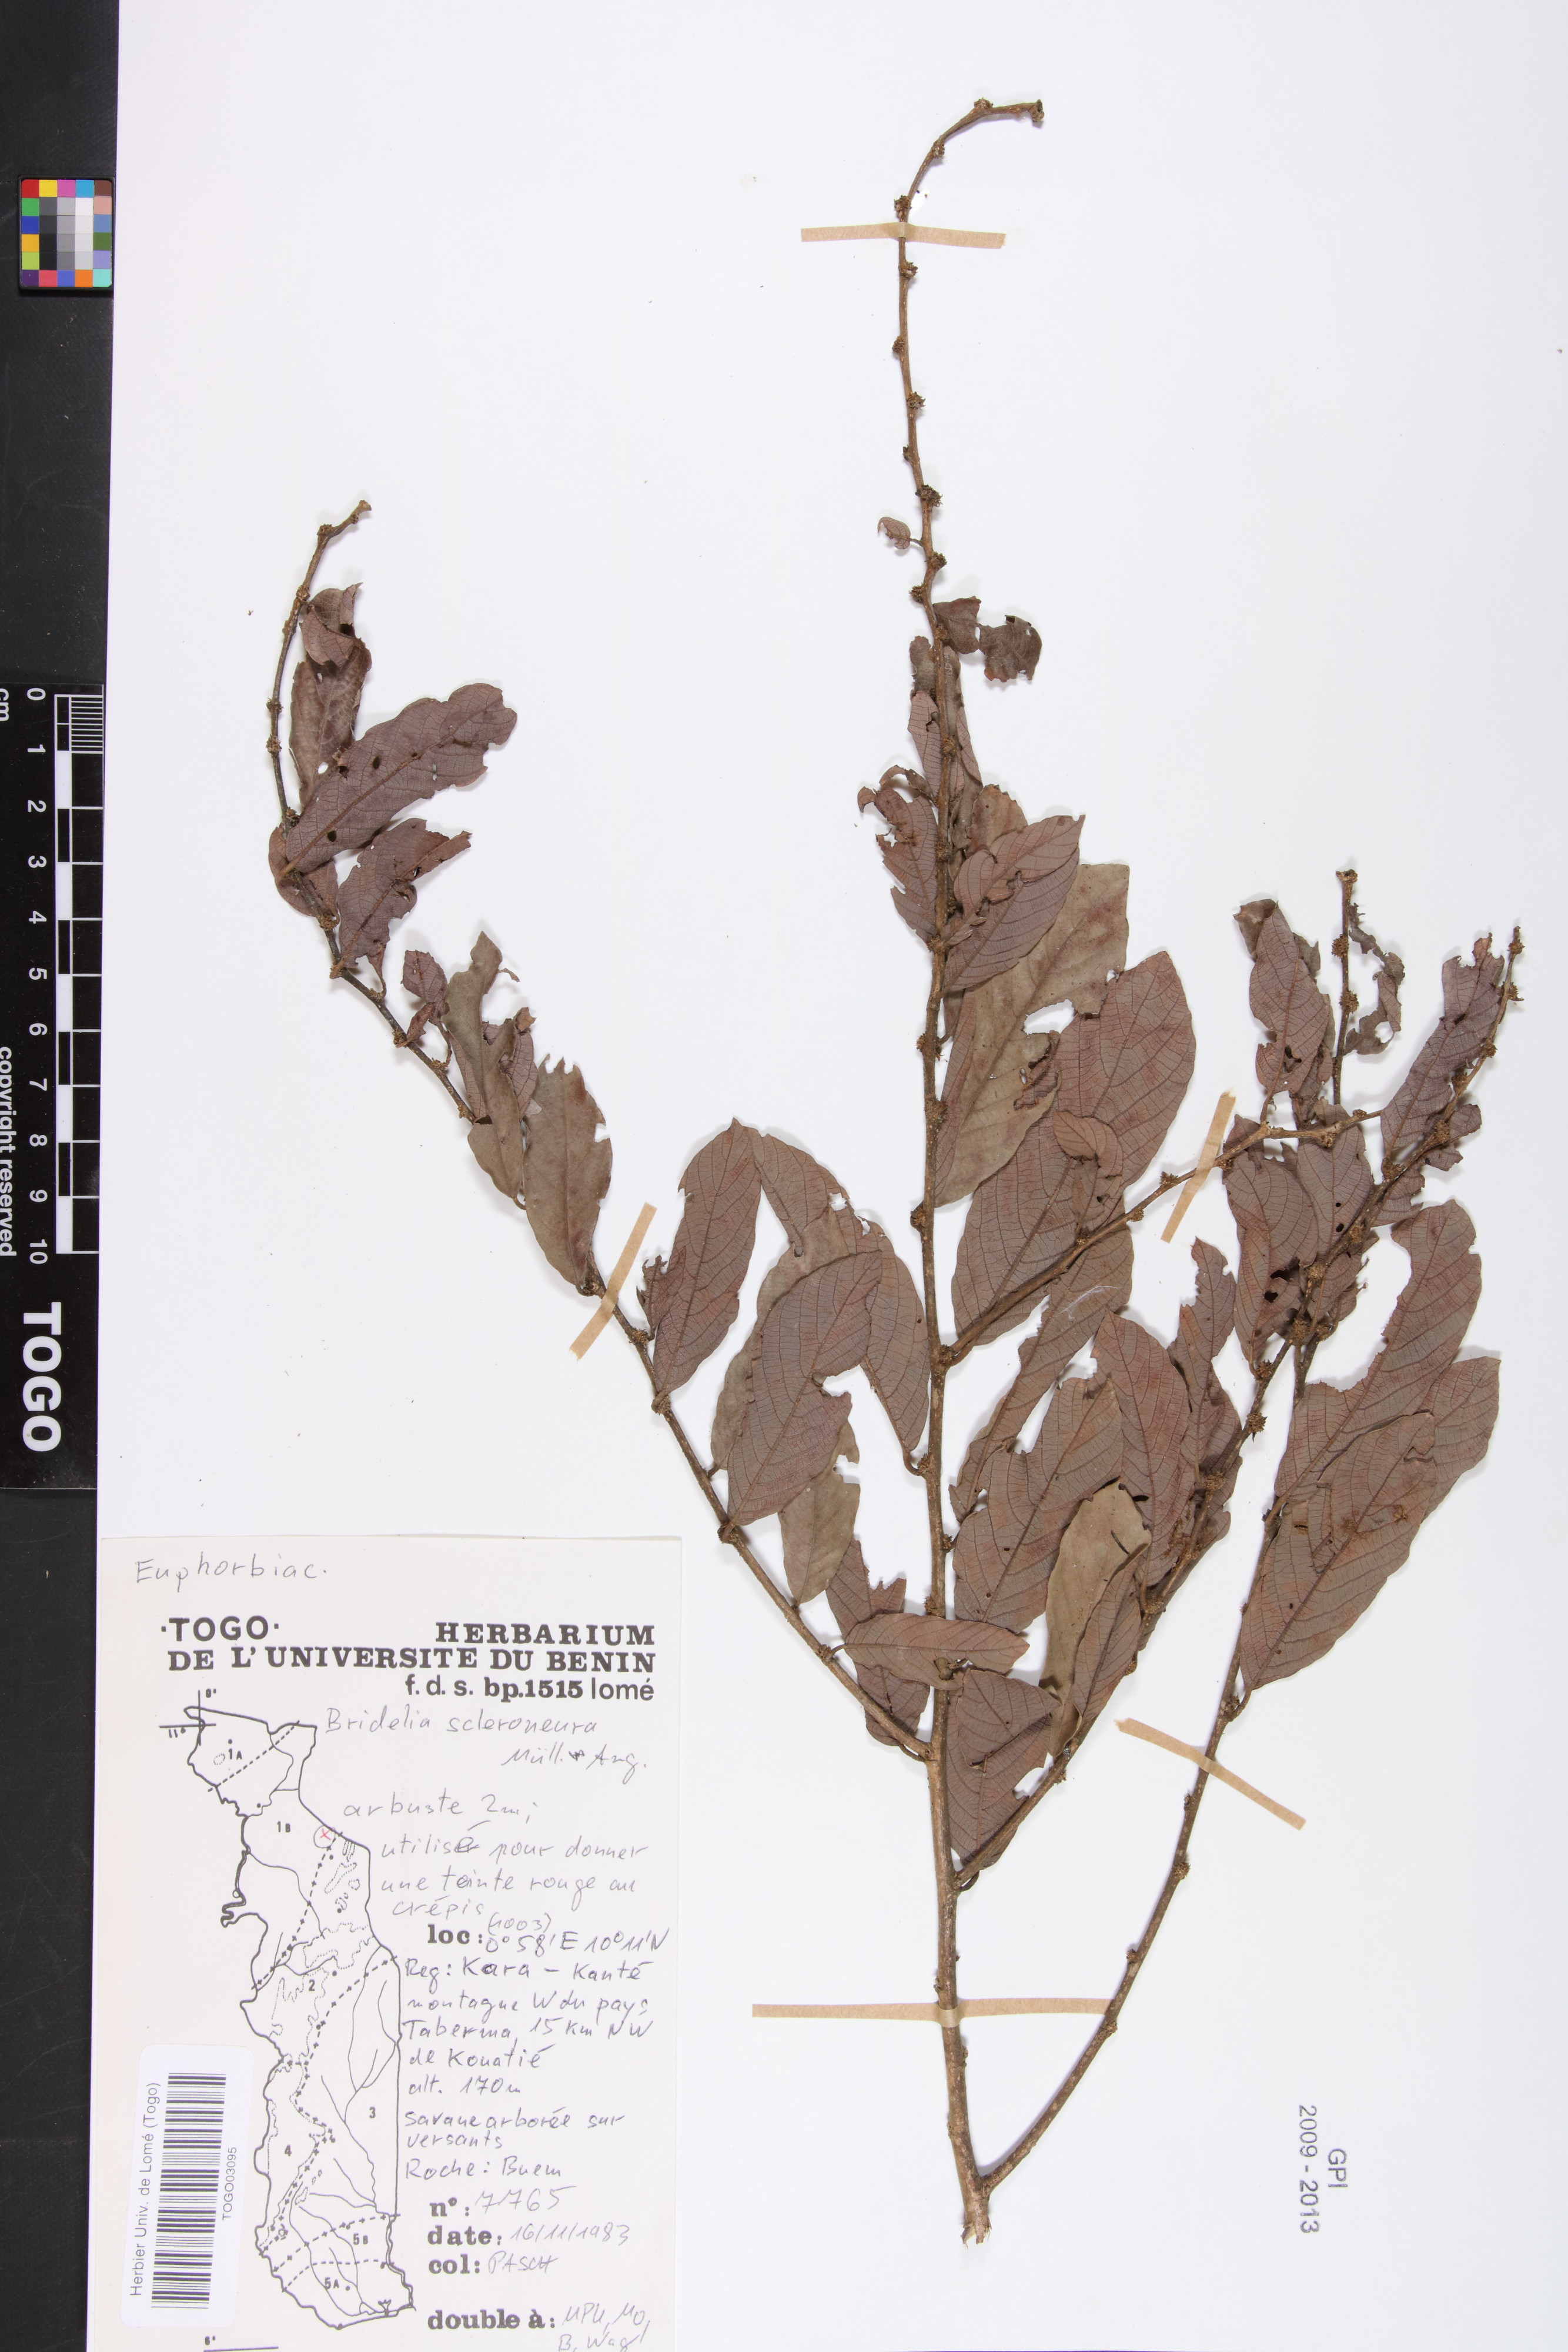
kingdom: Plantae
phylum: Tracheophyta
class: Magnoliopsida
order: Malpighiales
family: Phyllanthaceae
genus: Bridelia
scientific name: Bridelia scleroneura
